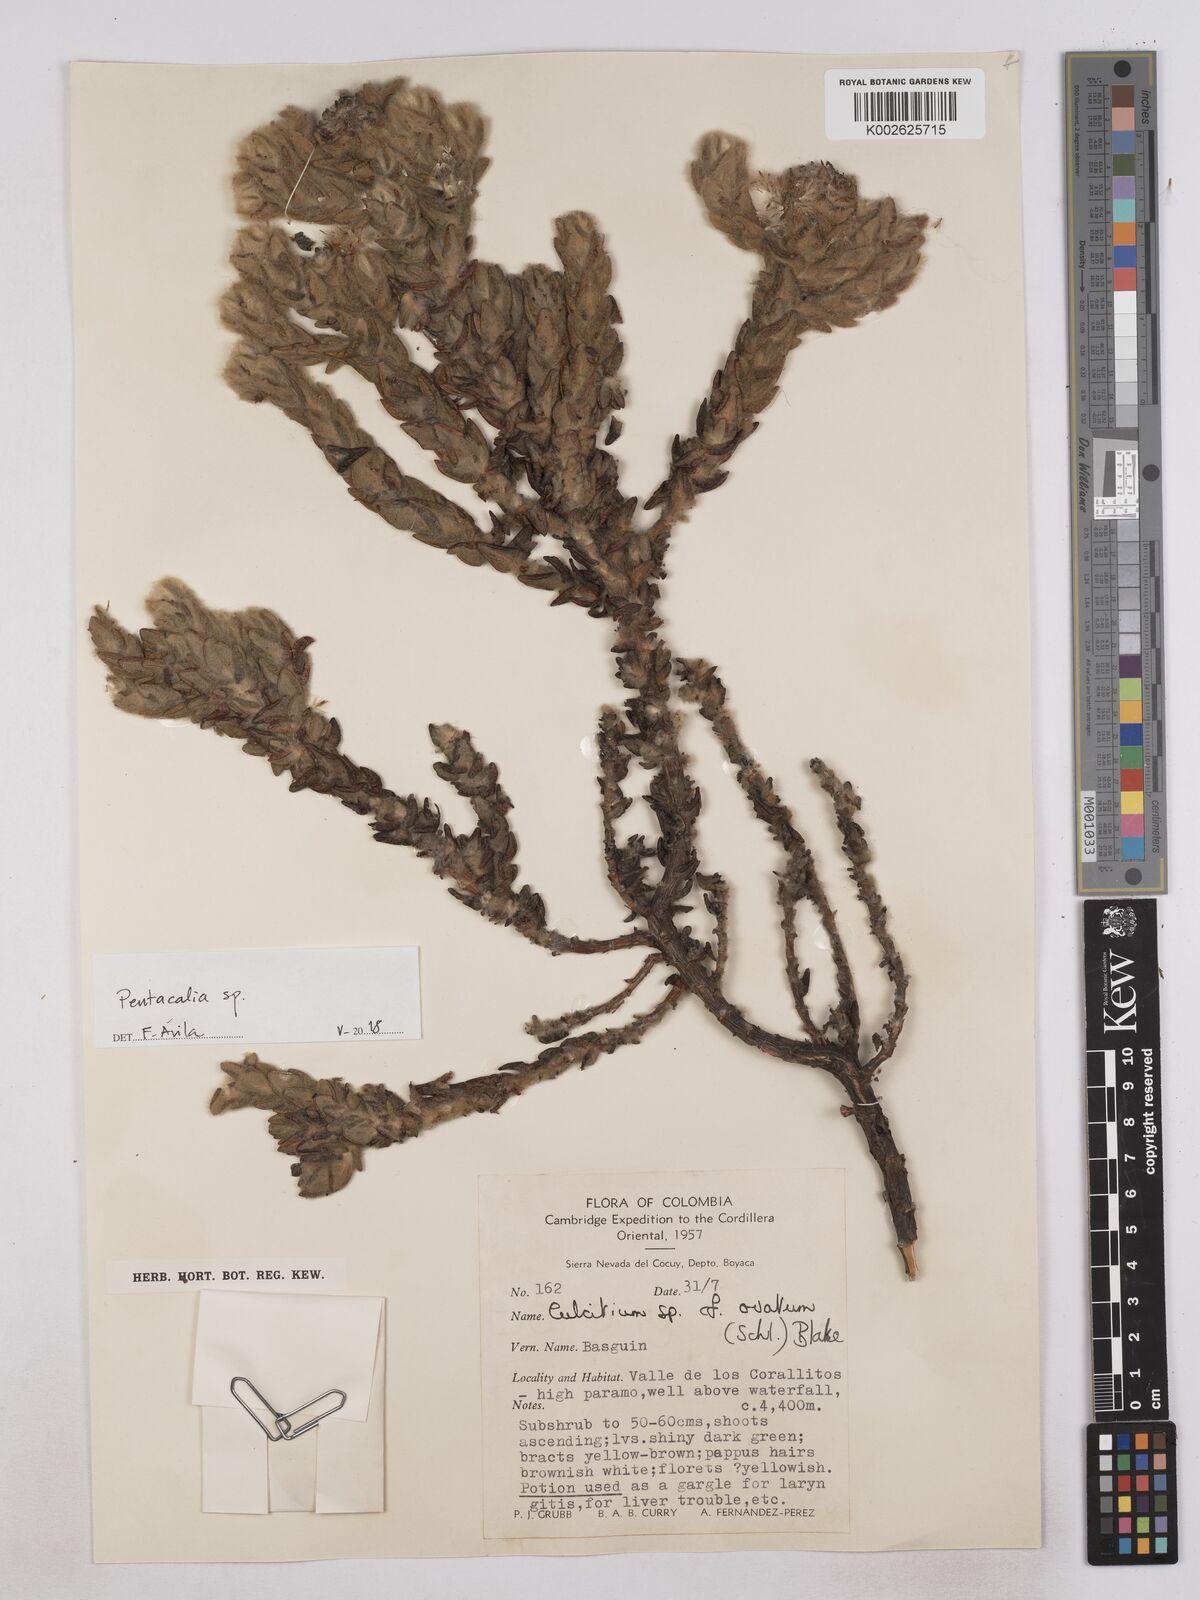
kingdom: Plantae
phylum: Tracheophyta
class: Magnoliopsida
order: Asterales
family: Asteraceae
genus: Monticalia
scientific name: Monticalia guicanensis
